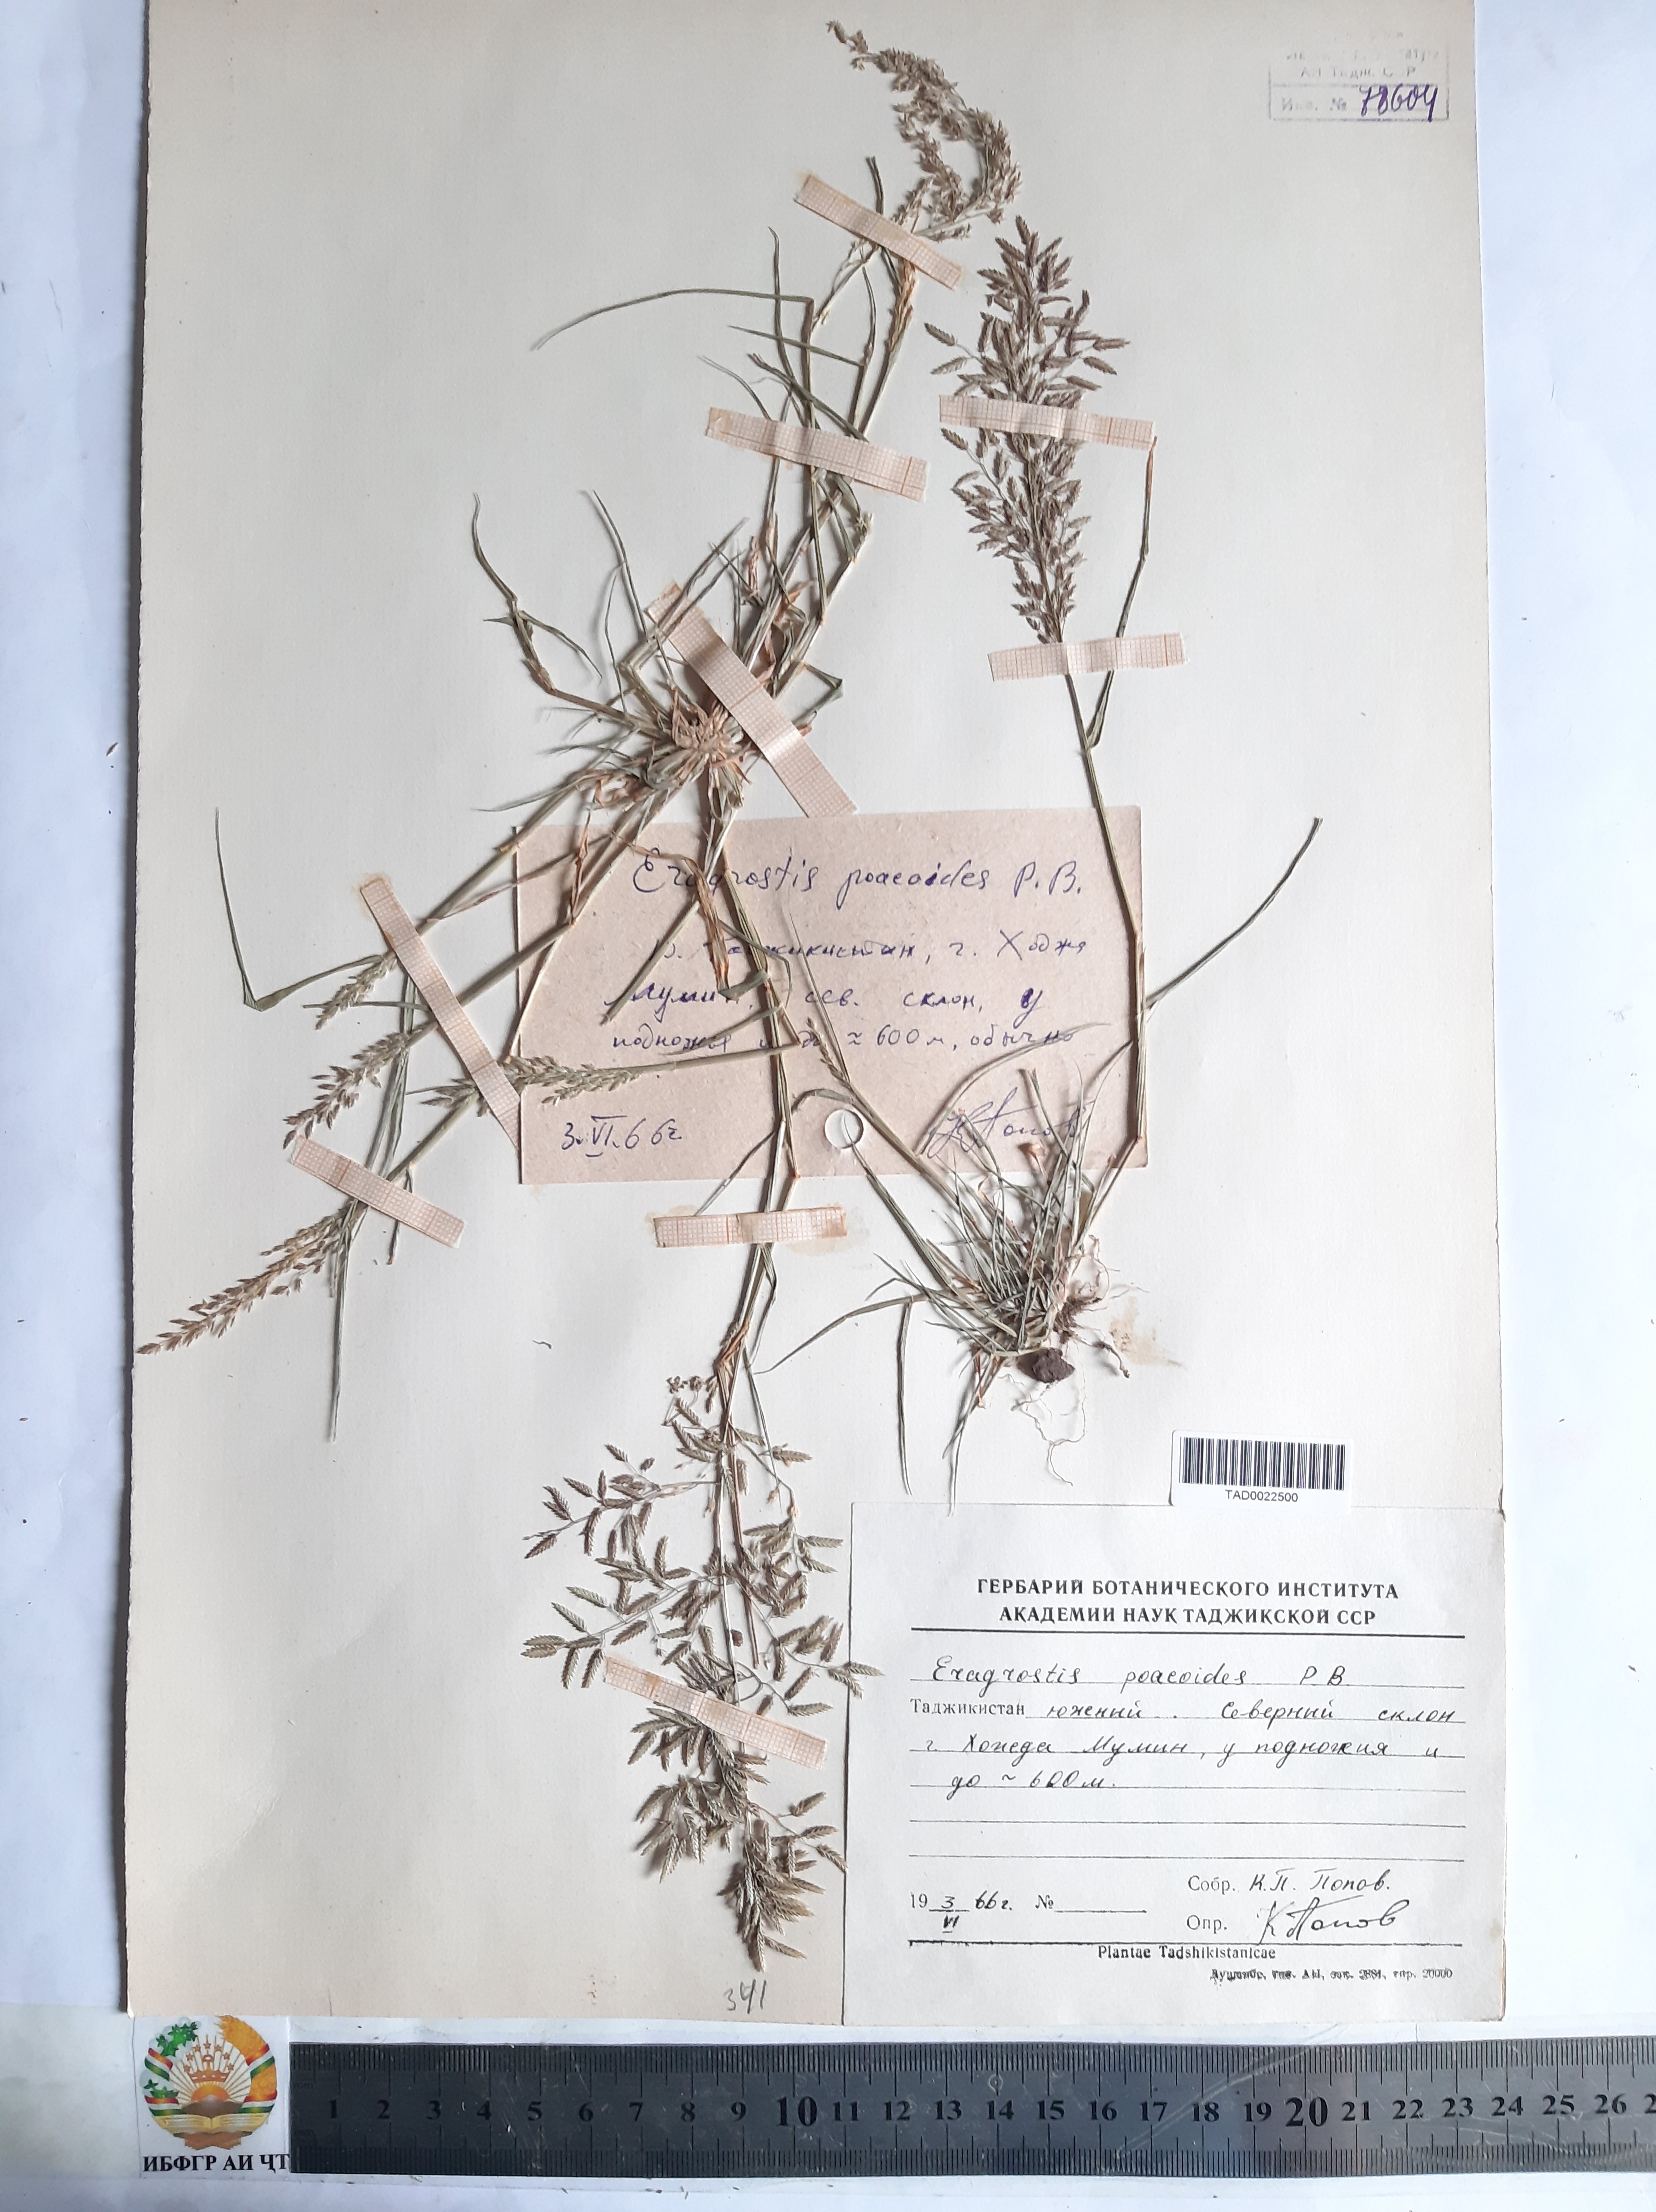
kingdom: Plantae
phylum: Tracheophyta
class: Liliopsida
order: Poales
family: Poaceae
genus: Eragrostis
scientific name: Eragrostis minor
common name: Small love-grass
